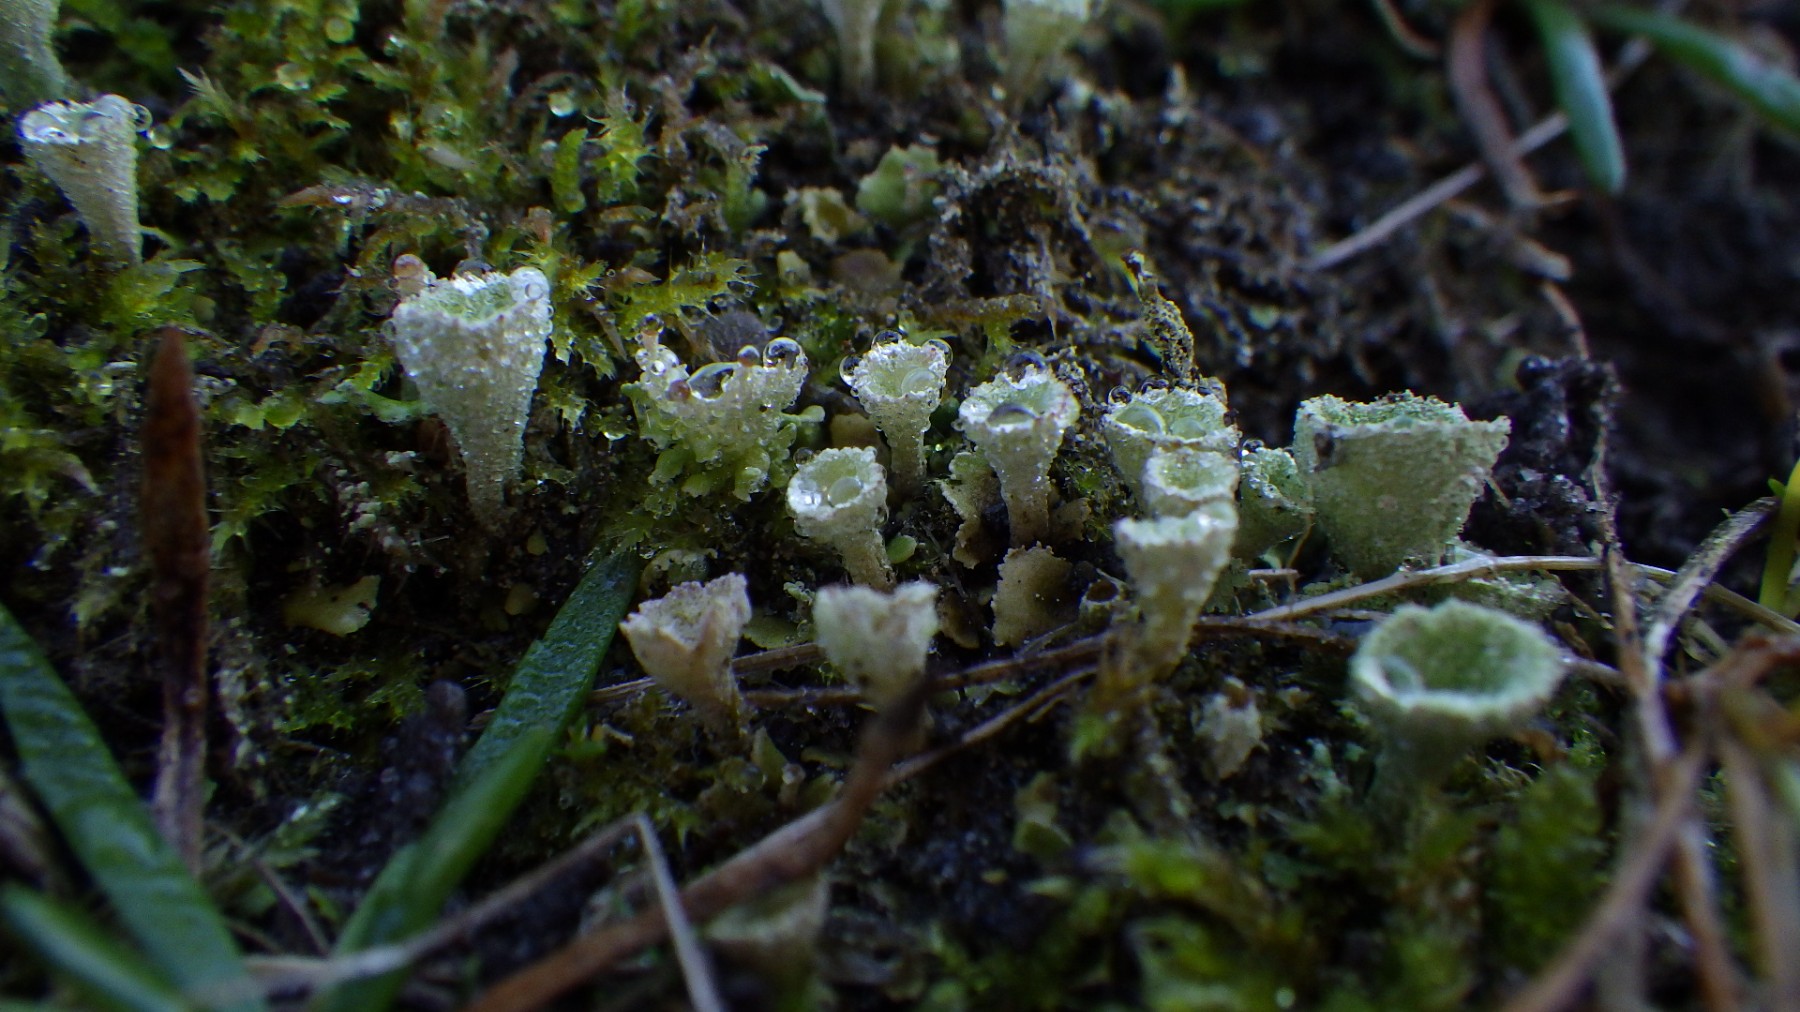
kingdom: Fungi
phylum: Ascomycota
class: Lecanoromycetes
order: Lecanorales
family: Cladoniaceae
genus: Cladonia
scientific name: Cladonia humilis
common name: lav bægerlav
